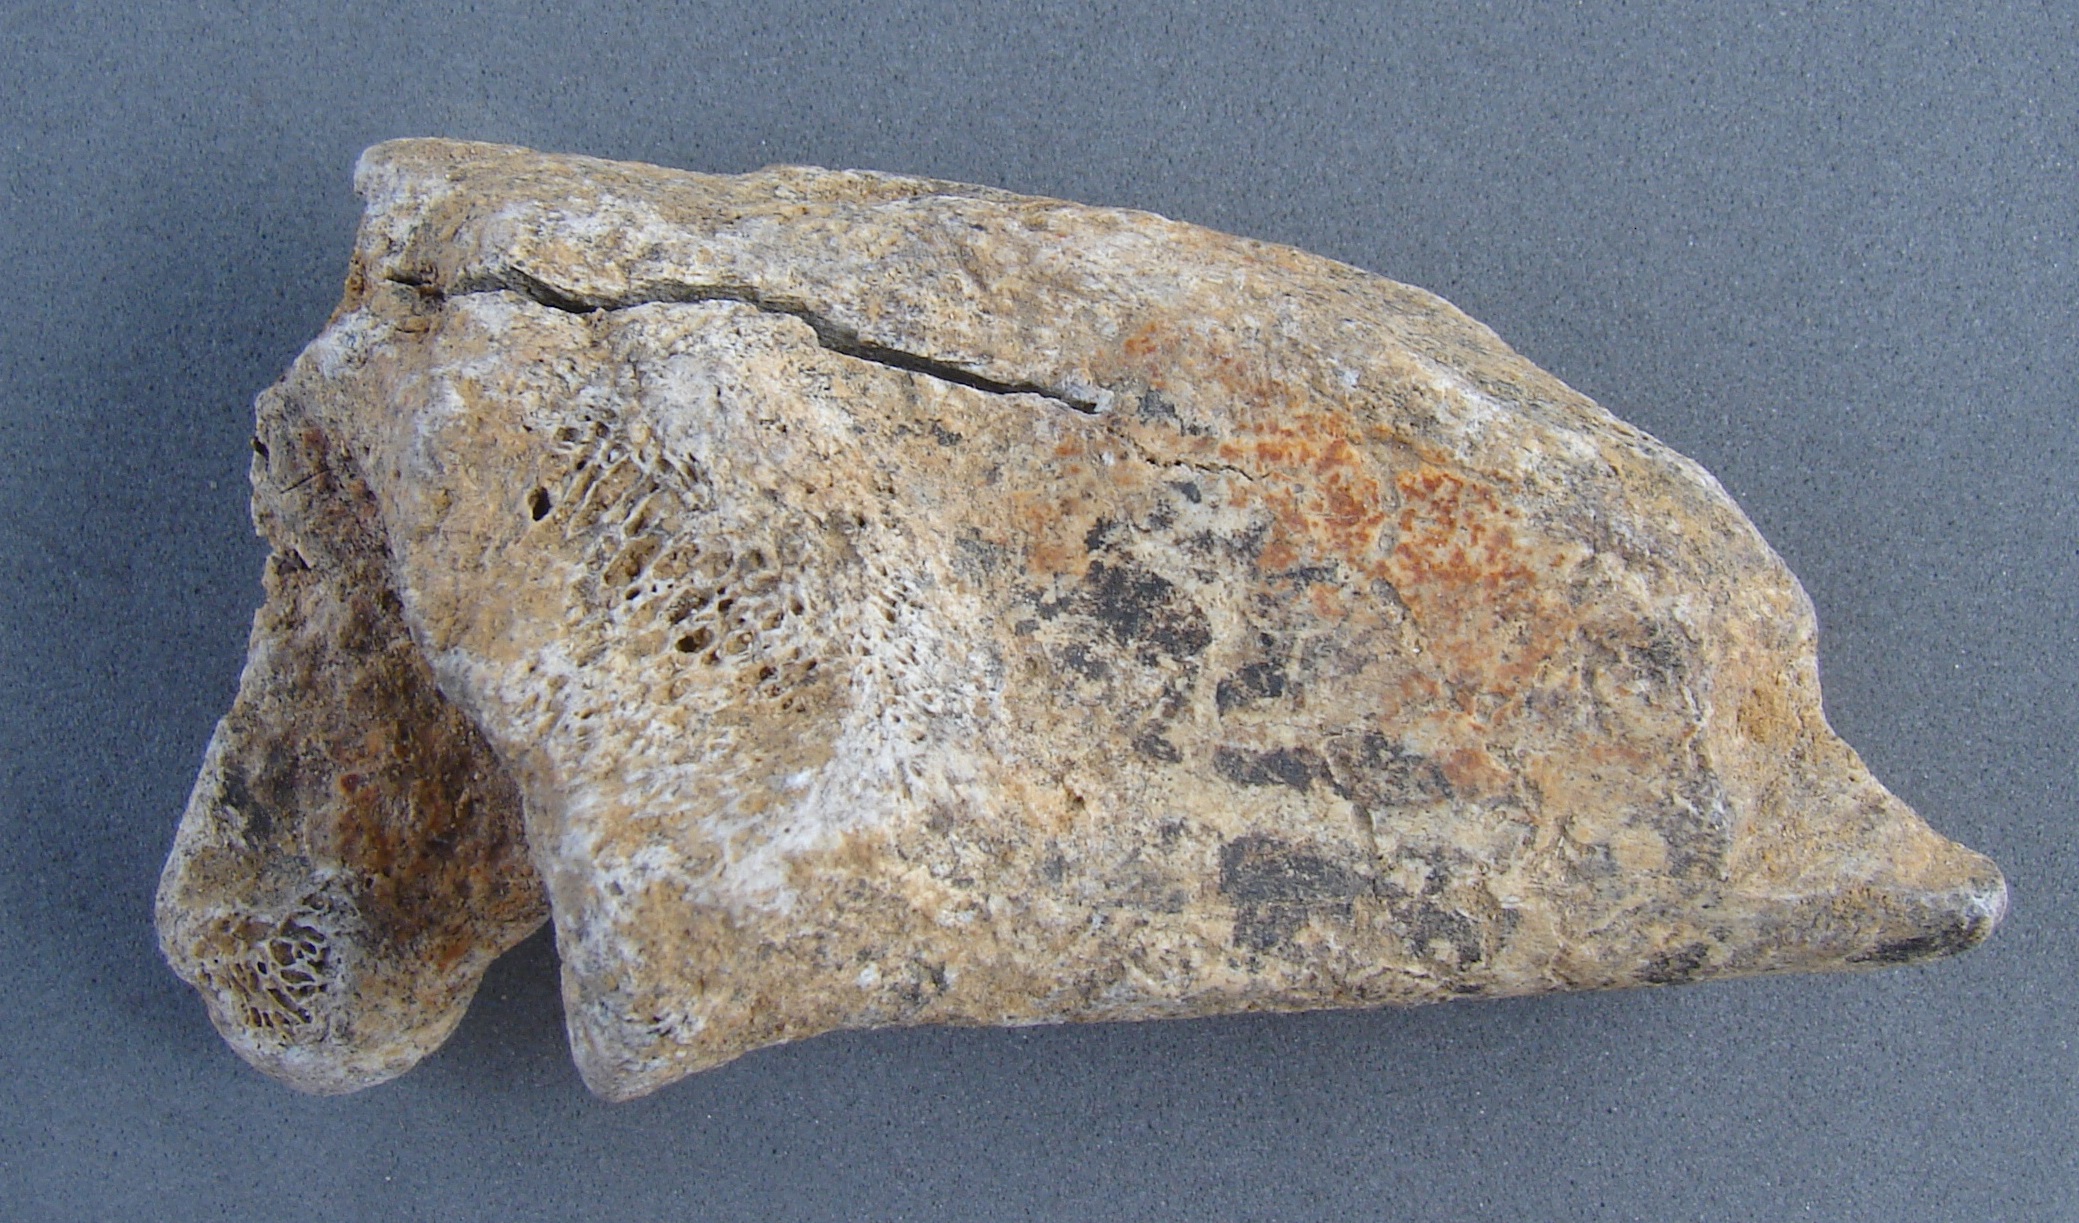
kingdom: Animalia
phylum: Chordata
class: Mammalia
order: Artiodactyla
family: Cervidae
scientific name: Cervidae
